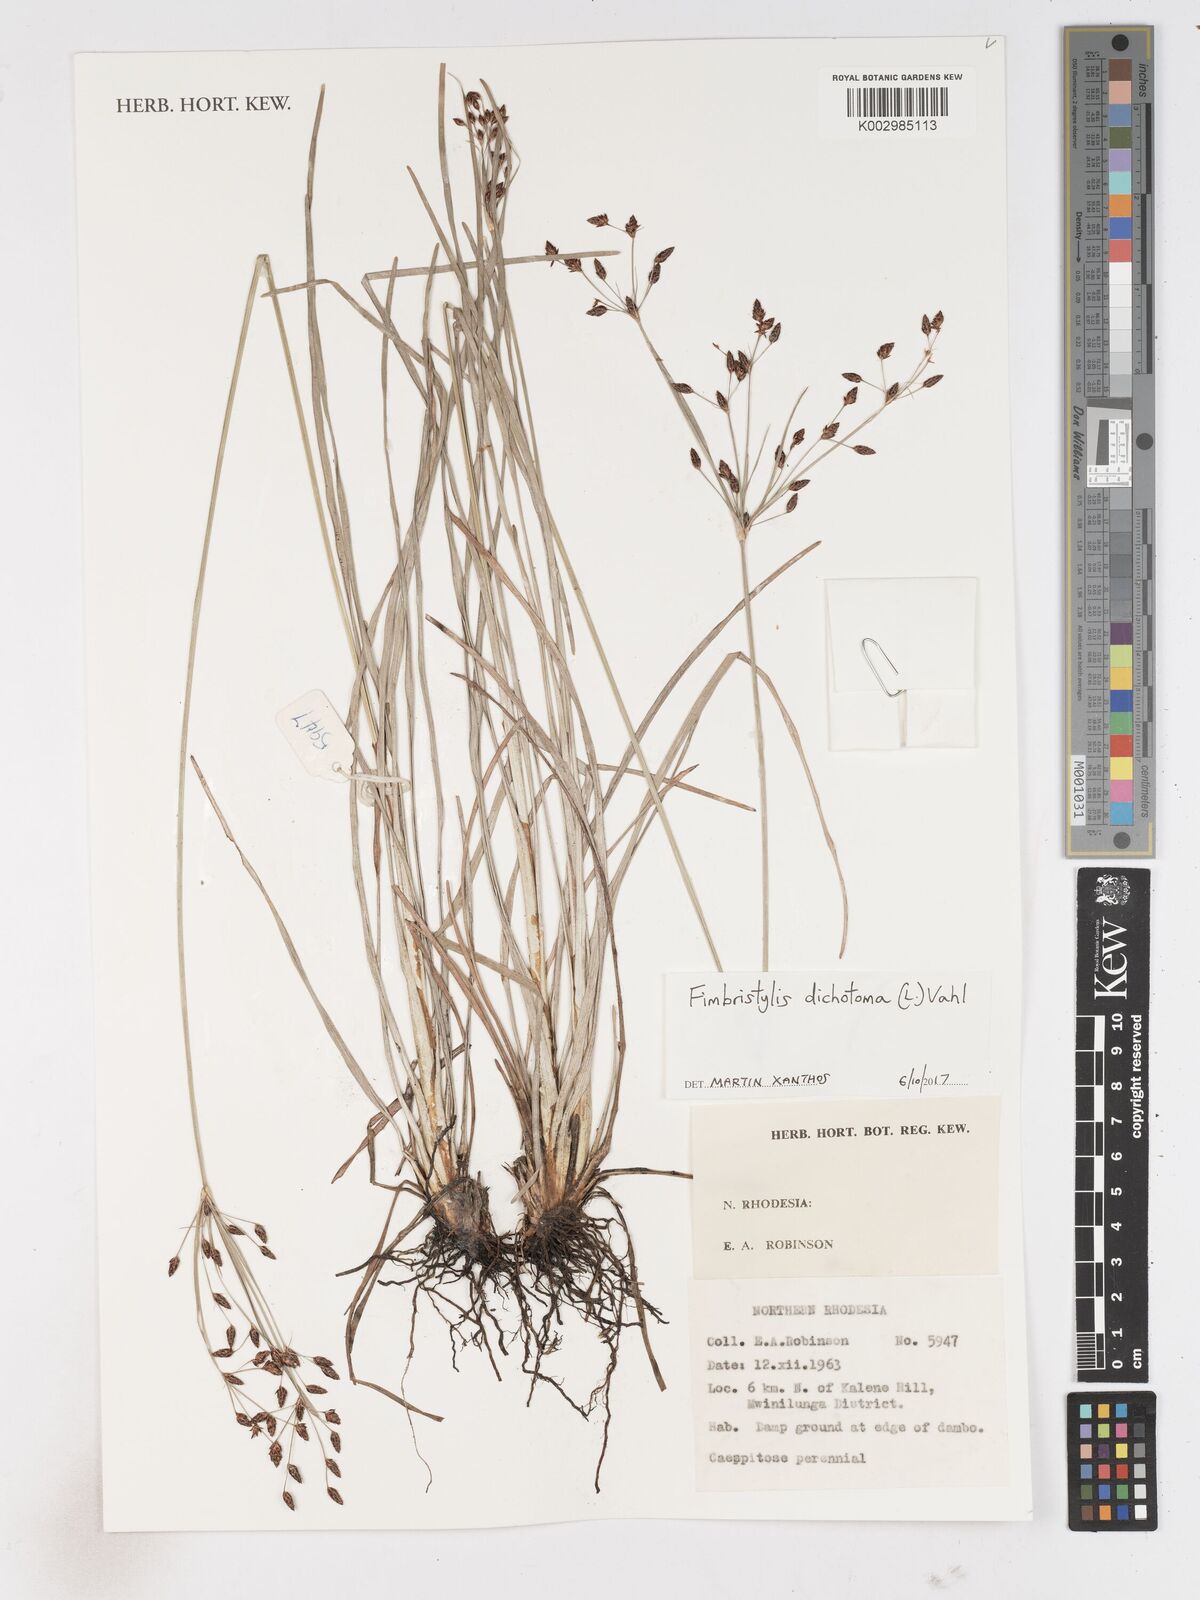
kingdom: Plantae
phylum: Tracheophyta
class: Liliopsida
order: Poales
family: Cyperaceae
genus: Fimbristylis
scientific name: Fimbristylis dichotoma
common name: Forked fimbry
